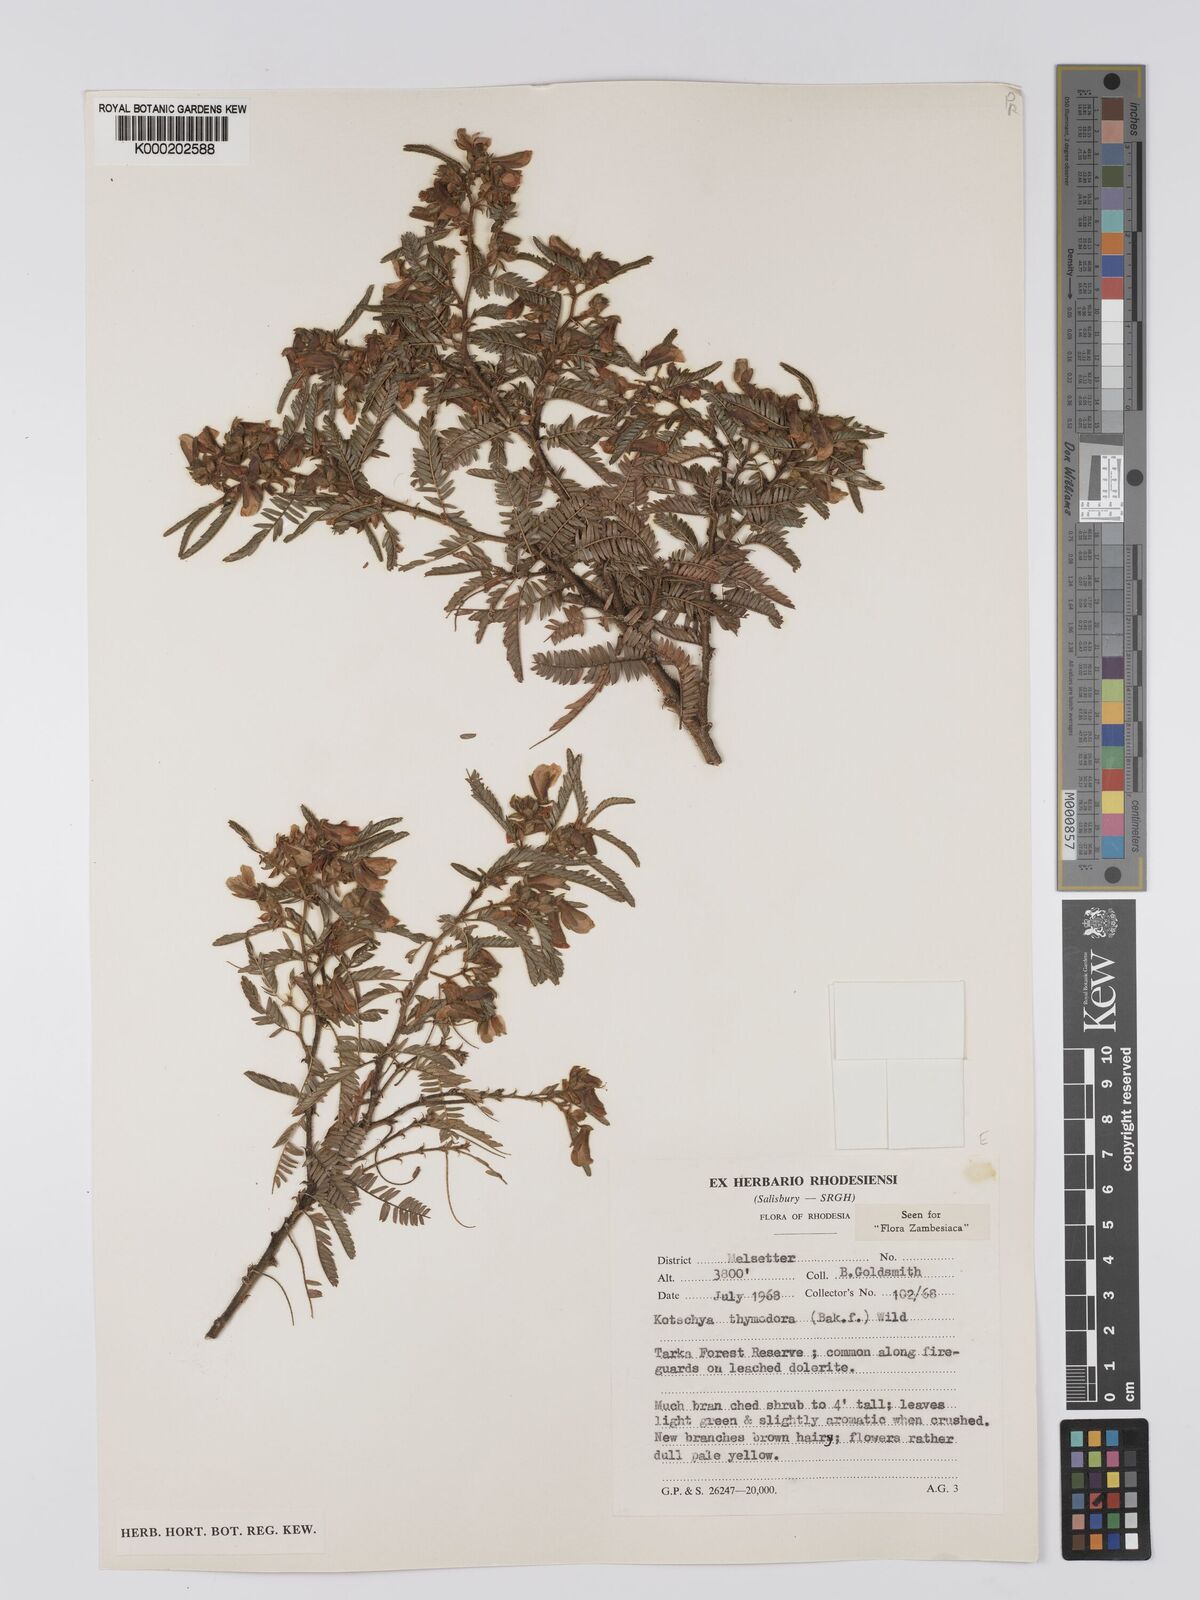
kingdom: Plantae
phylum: Tracheophyta
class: Magnoliopsida
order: Fabales
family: Fabaceae
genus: Kotschya
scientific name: Kotschya thymodora
